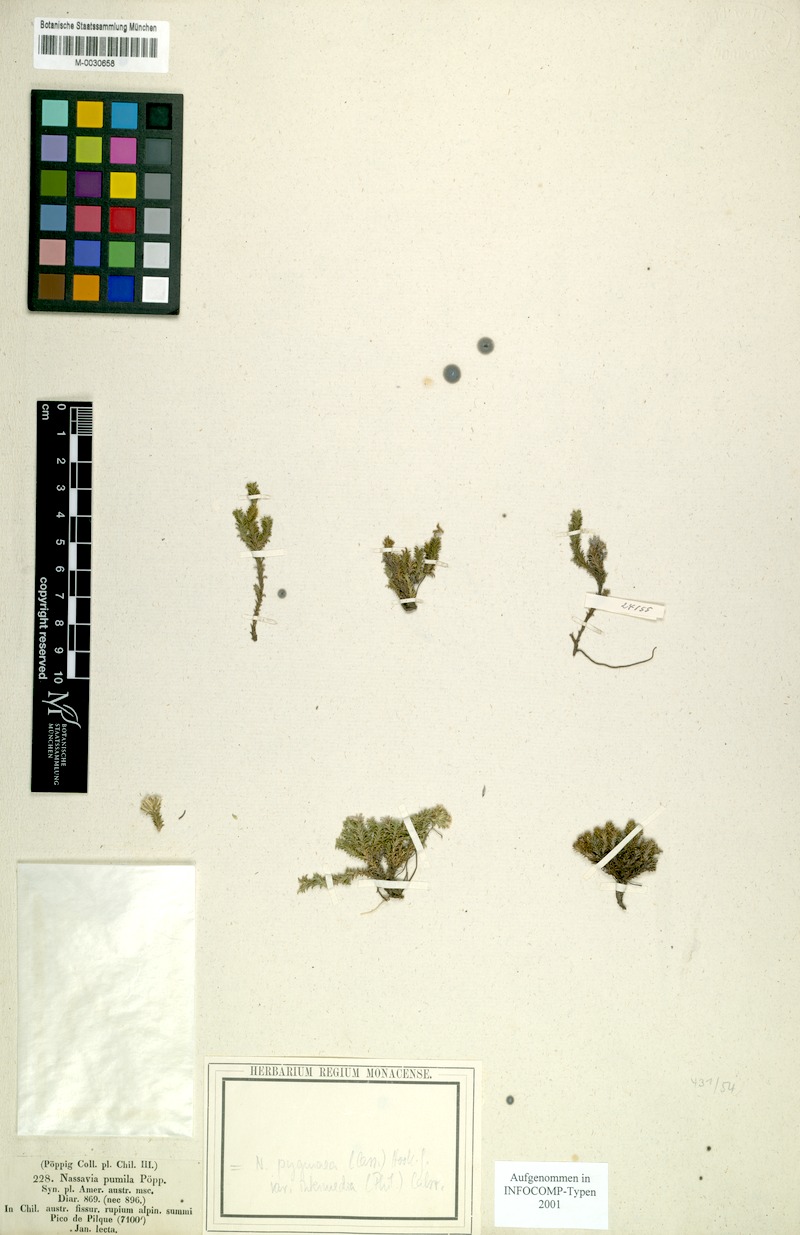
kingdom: Plantae
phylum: Tracheophyta
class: Magnoliopsida
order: Asterales
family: Asteraceae
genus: Nassauvia
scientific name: Nassauvia pygmaea
